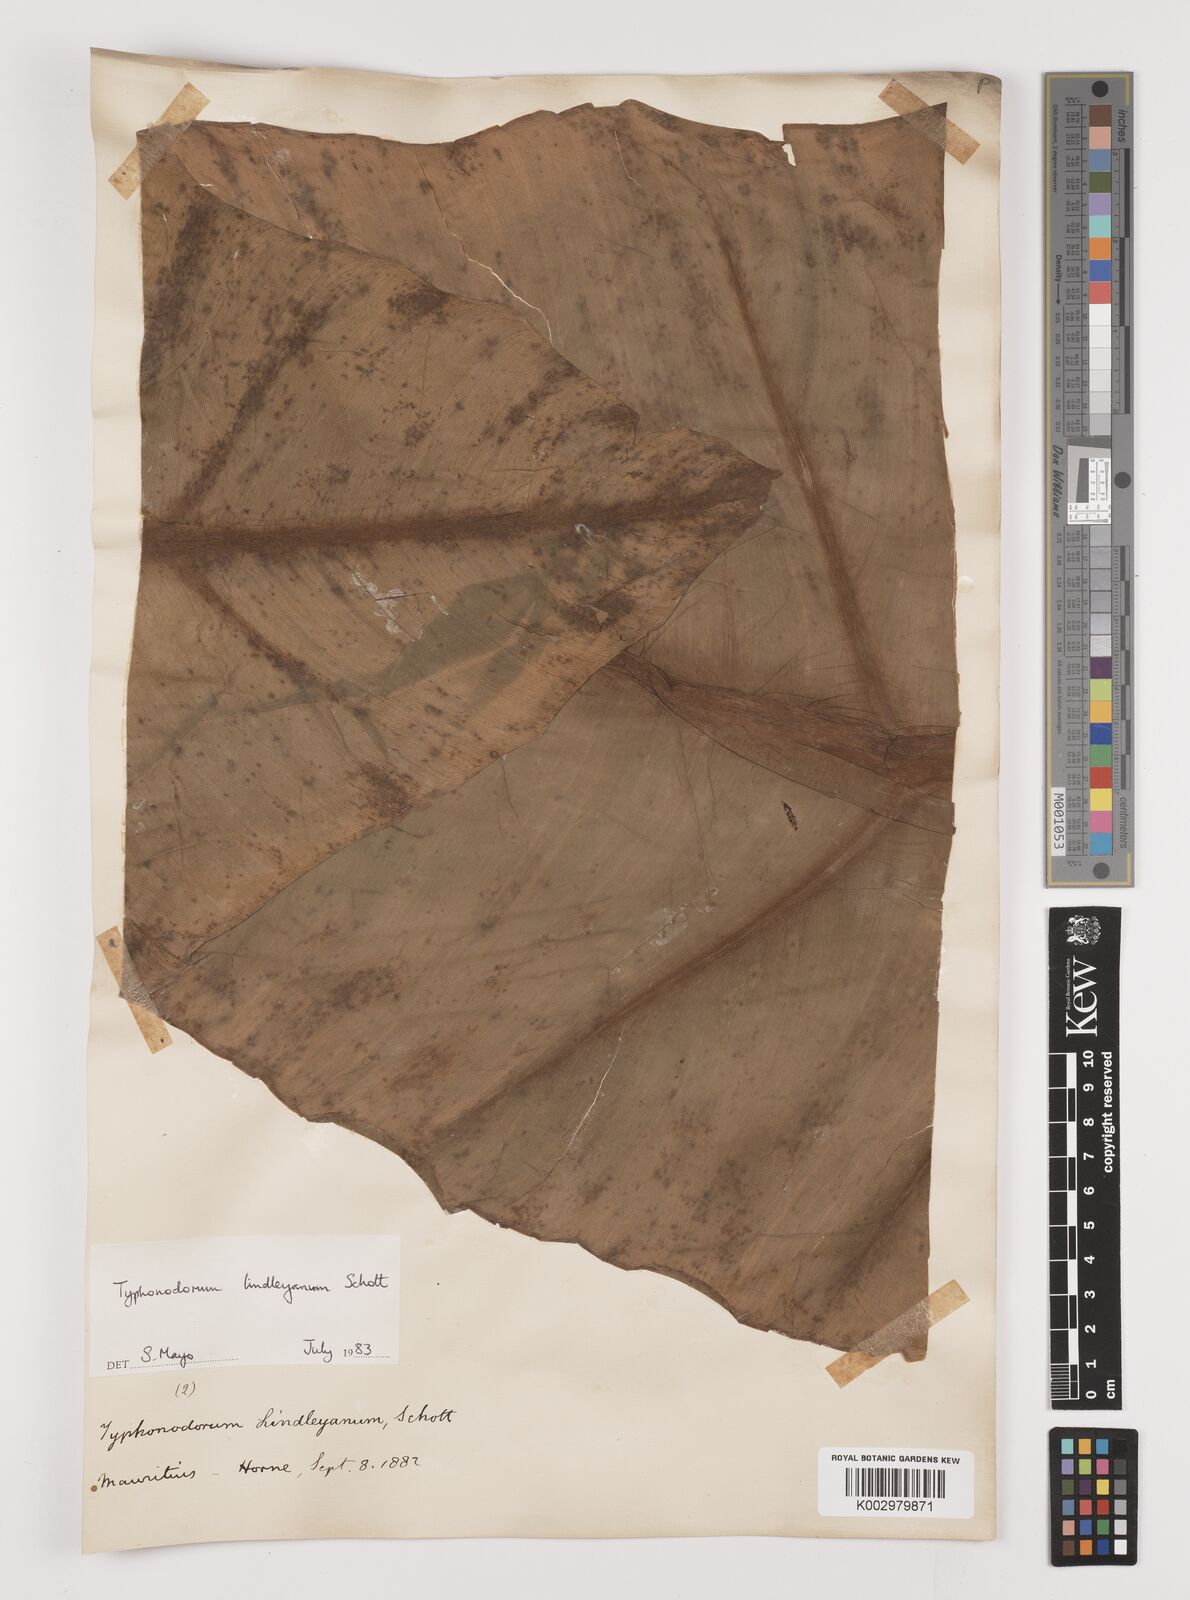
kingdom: Plantae
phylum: Tracheophyta
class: Liliopsida
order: Alismatales
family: Araceae
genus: Typhonodorum
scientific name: Typhonodorum lindleyanum
